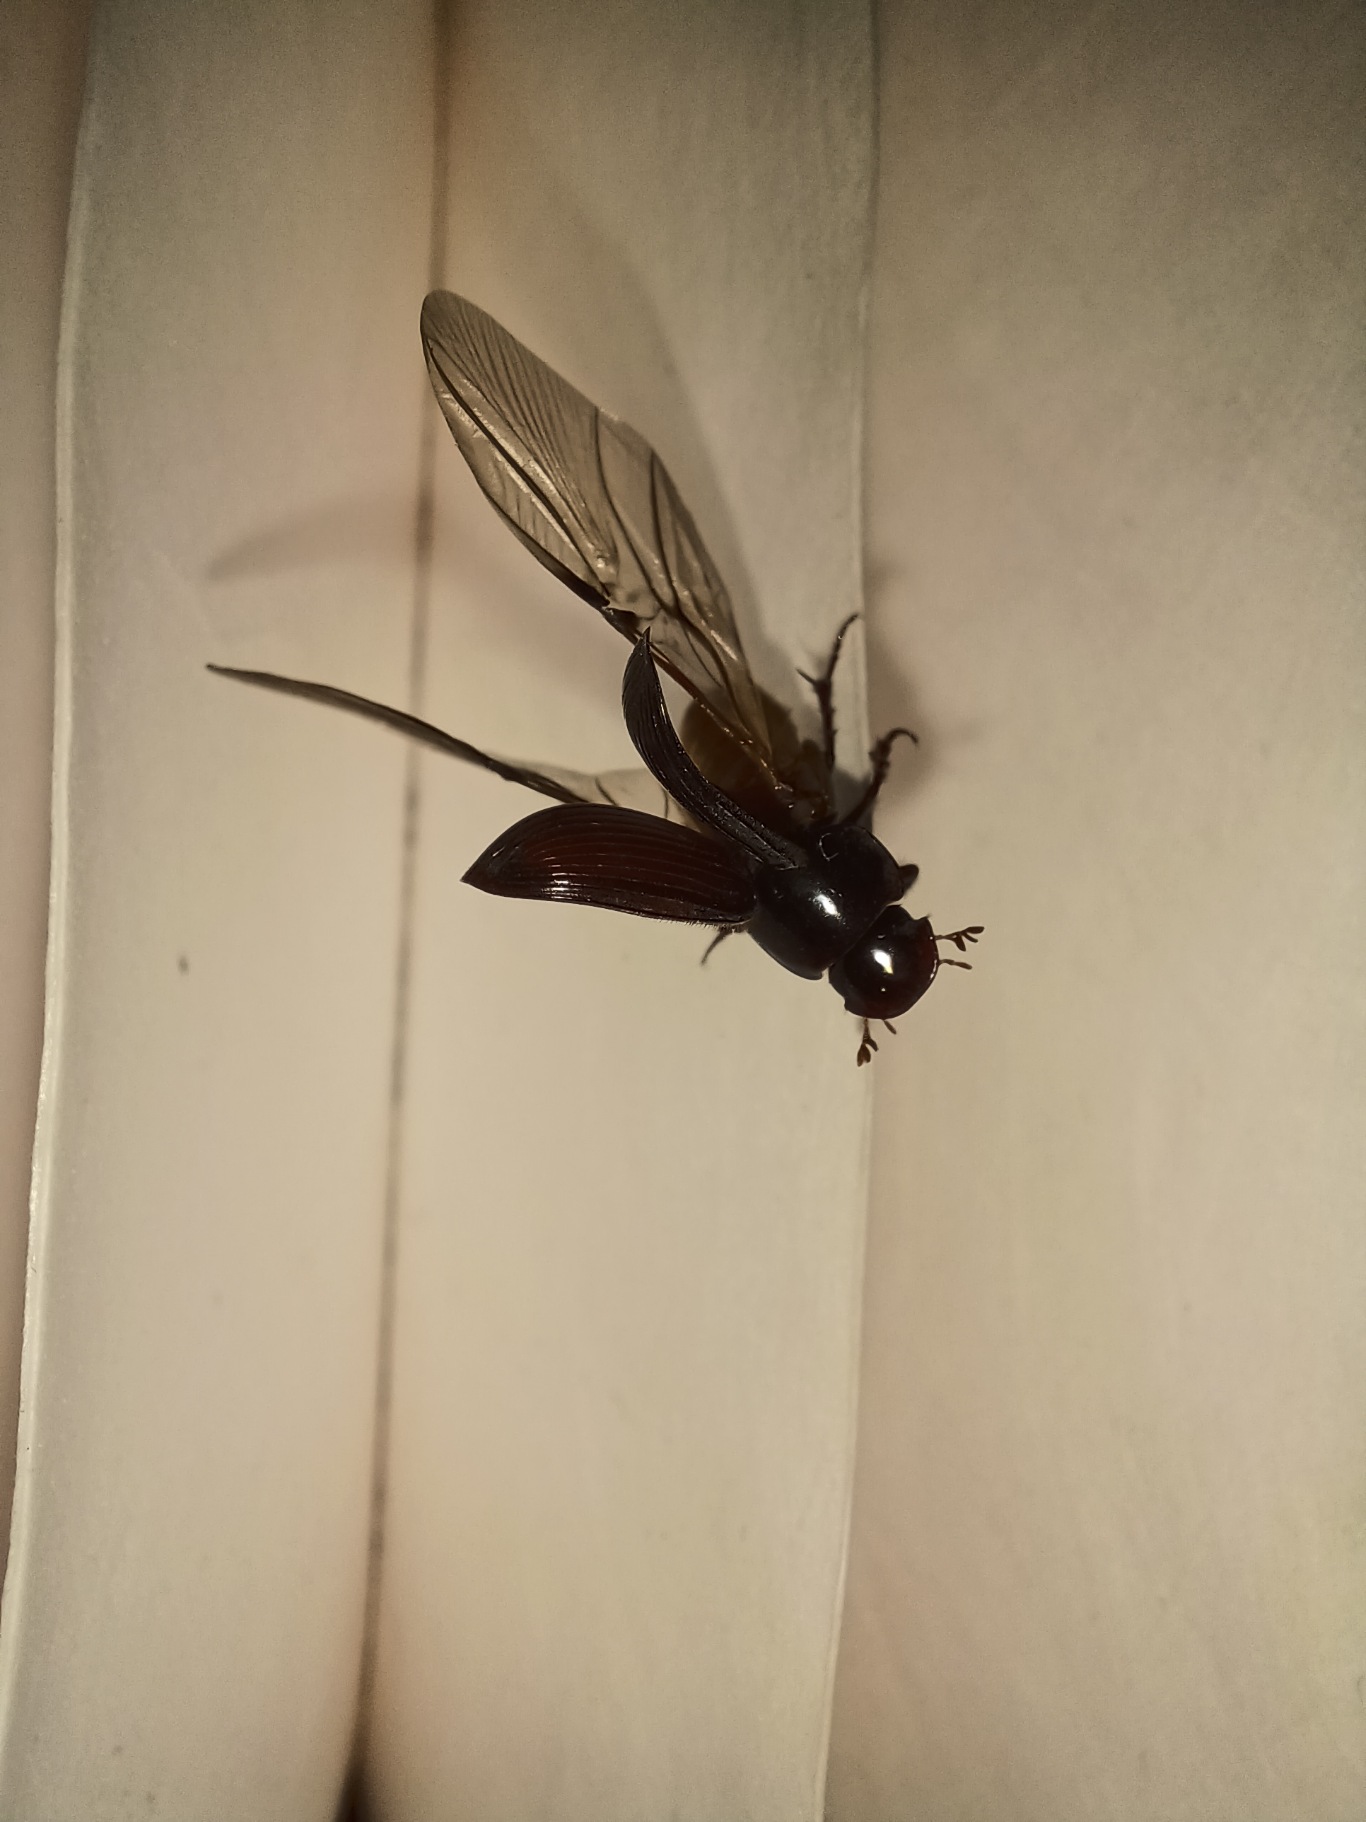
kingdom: Animalia
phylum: Arthropoda
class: Insecta
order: Coleoptera
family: Scarabaeidae
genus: Acrossus
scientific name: Acrossus rufipes
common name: Rødbenet møgbille
